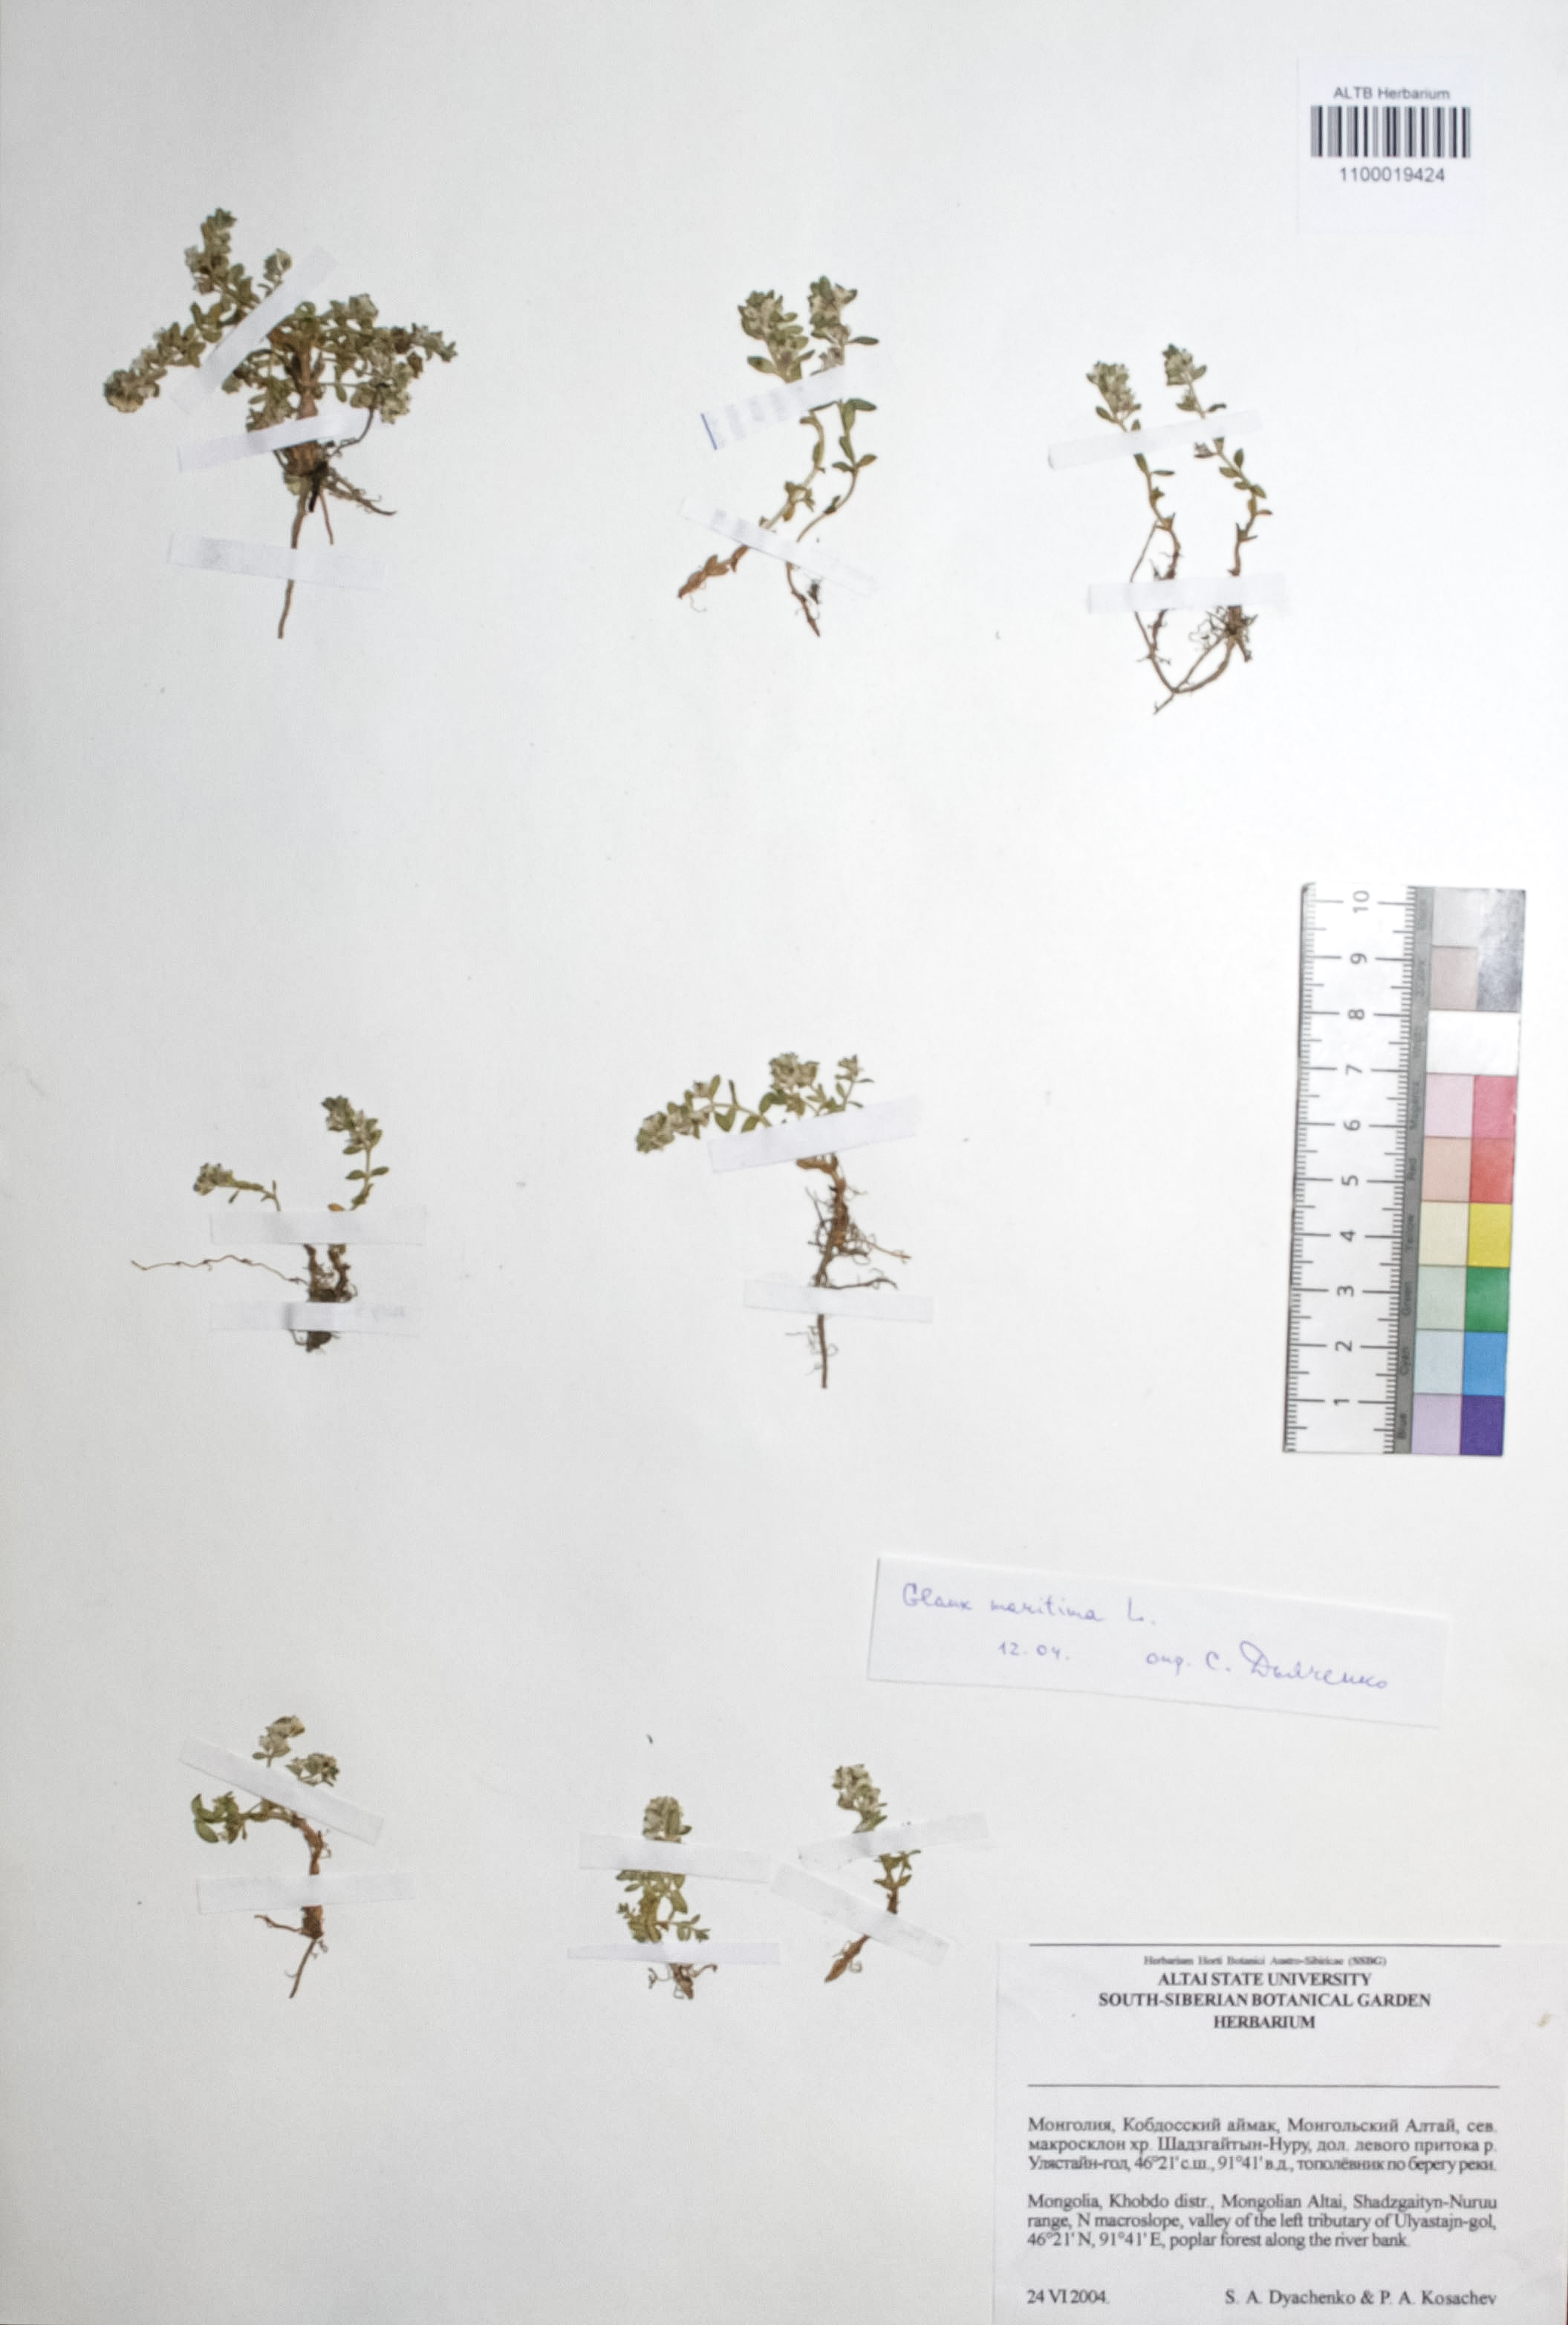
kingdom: Plantae
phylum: Tracheophyta
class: Magnoliopsida
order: Ericales
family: Primulaceae
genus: Lysimachia
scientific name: Lysimachia maritima
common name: Sea milkwort
